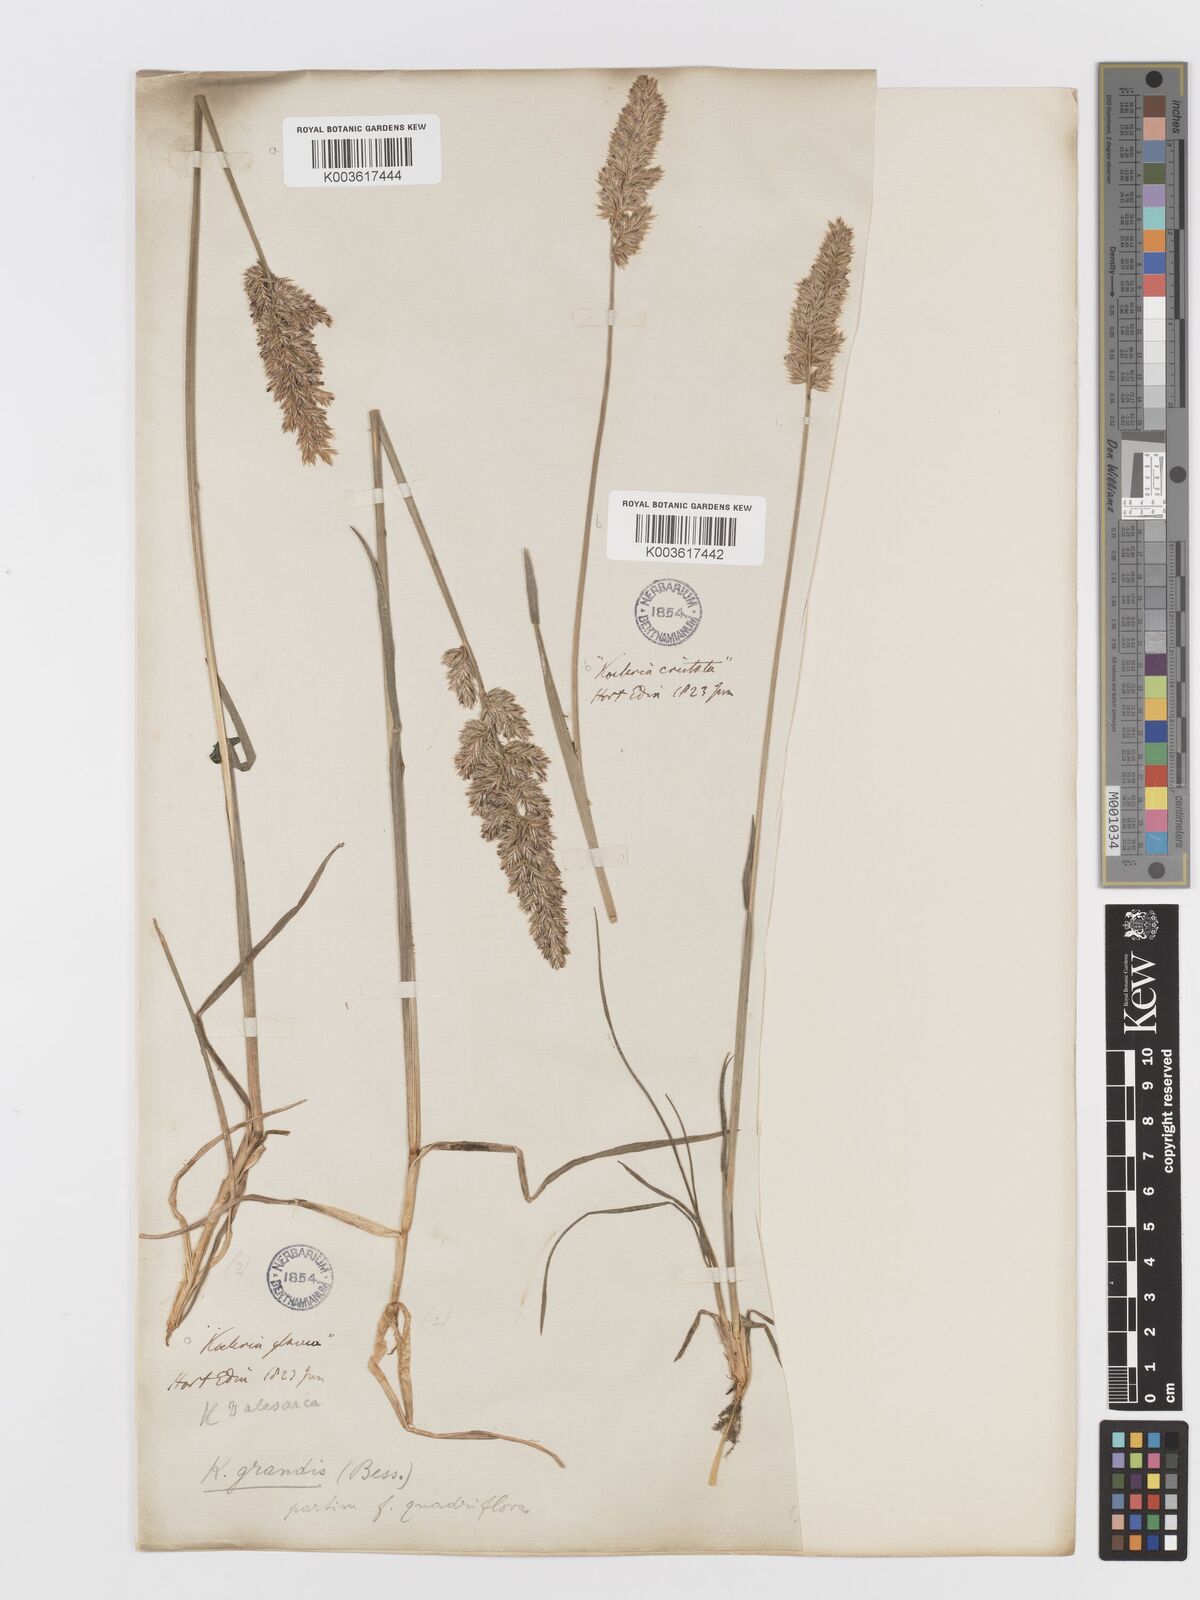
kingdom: Plantae
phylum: Tracheophyta
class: Liliopsida
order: Poales
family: Poaceae
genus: Koeleria
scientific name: Koeleria pyramidata
